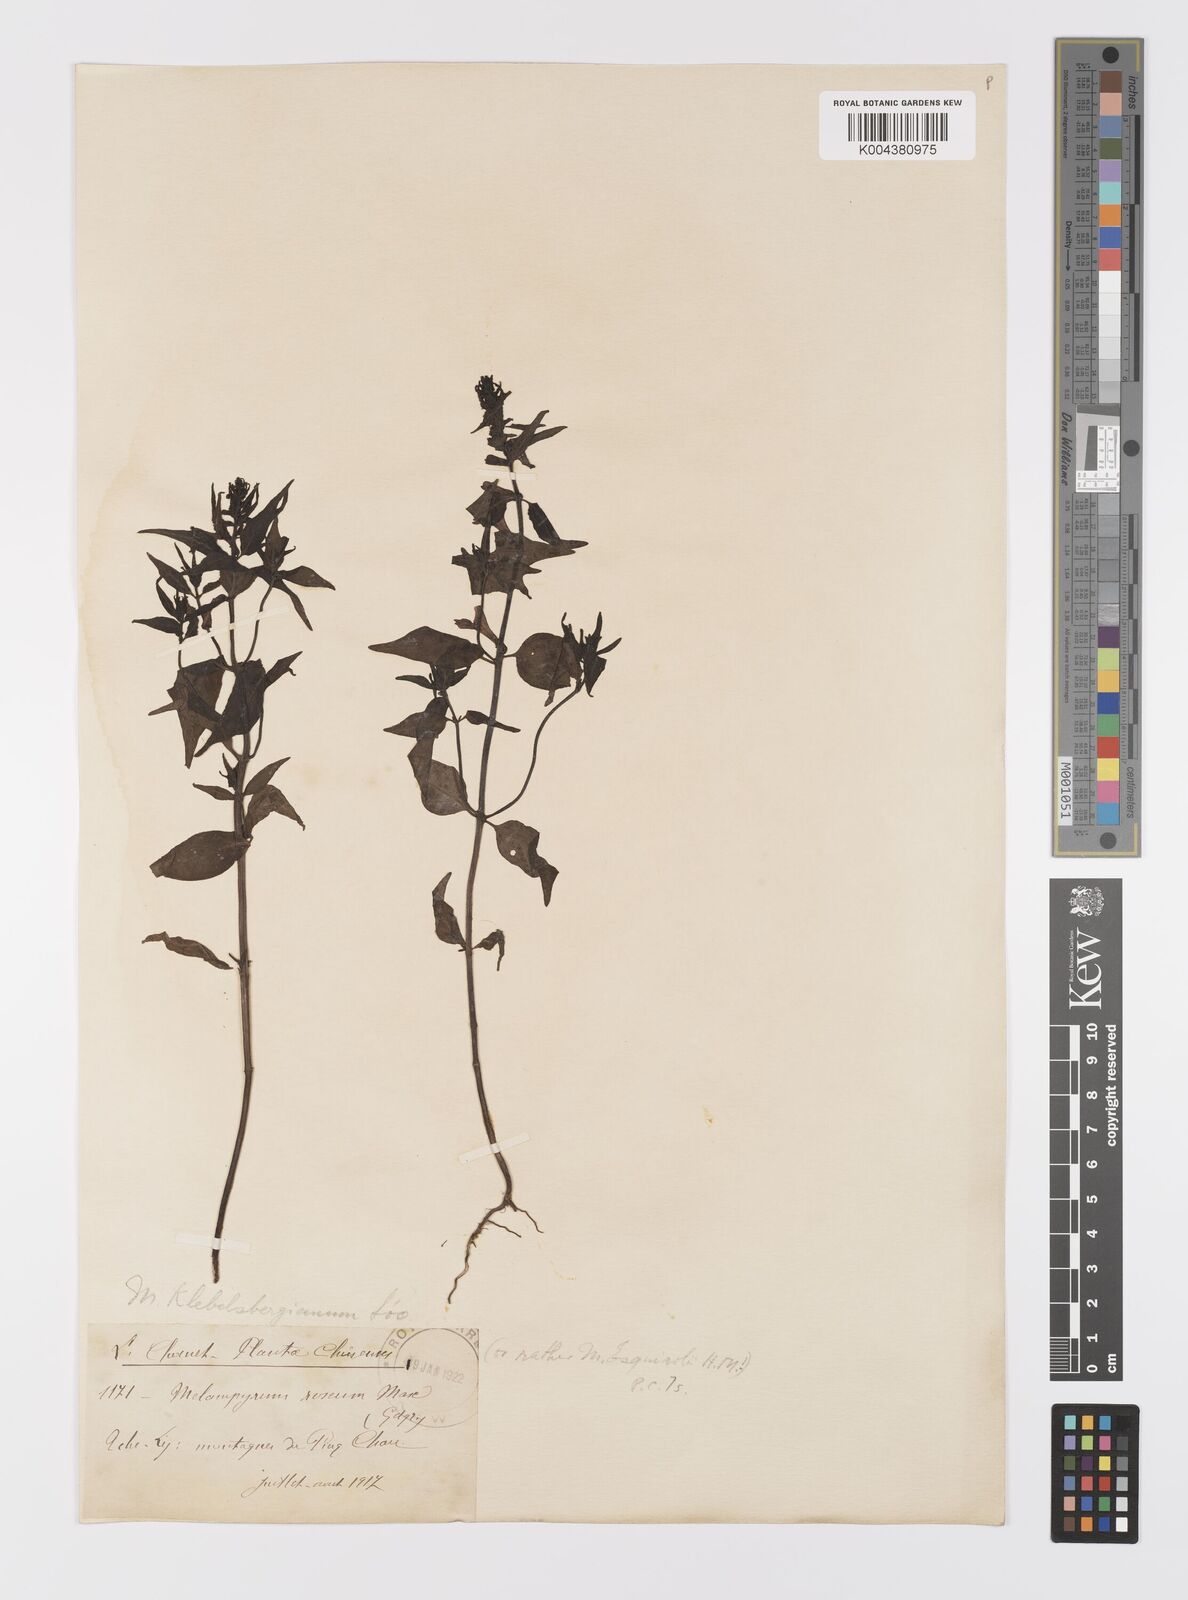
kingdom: Plantae
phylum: Tracheophyta
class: Magnoliopsida
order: Lamiales
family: Orobanchaceae
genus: Melampyrum
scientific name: Melampyrum chinense
